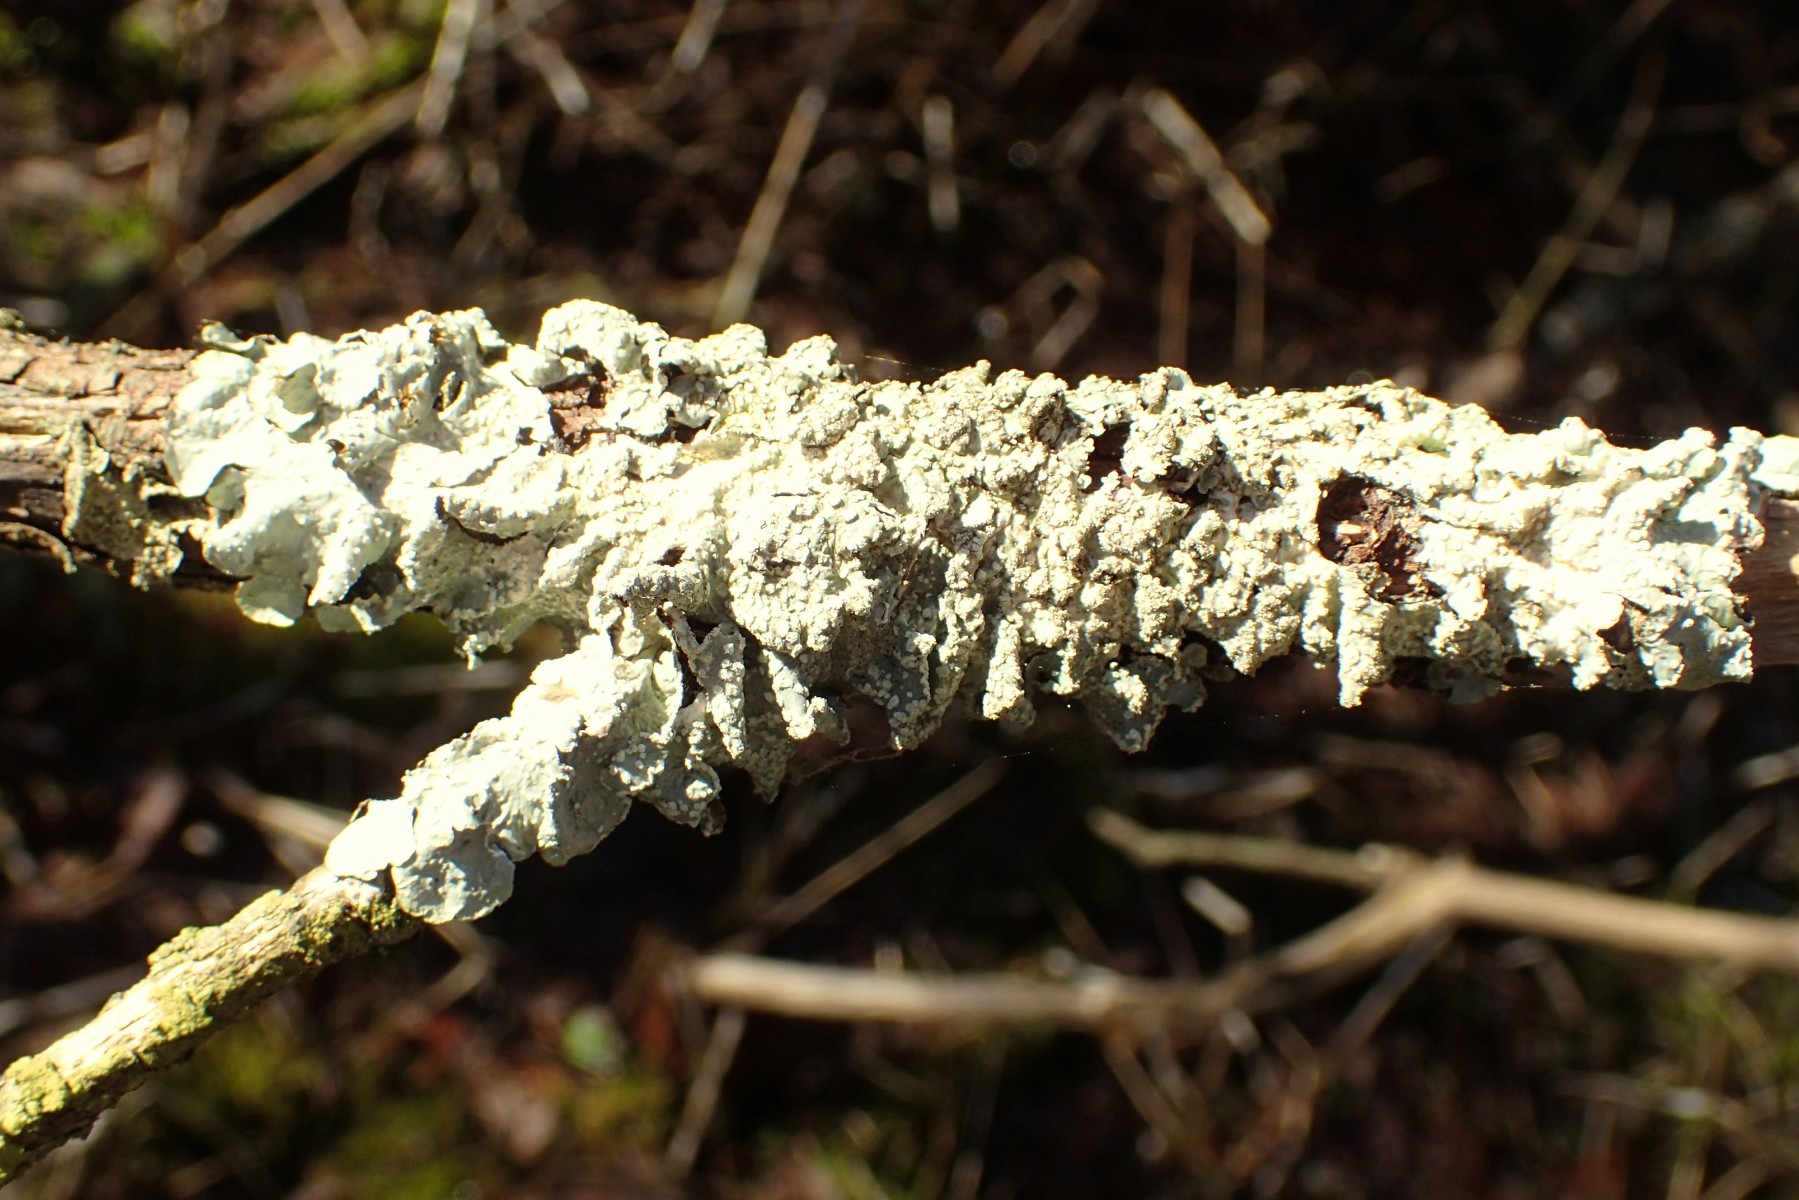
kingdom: Fungi
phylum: Ascomycota
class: Lecanoromycetes
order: Lecanorales
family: Parmeliaceae
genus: Punctelia
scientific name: Punctelia subrudecta
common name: punkt-skållav
